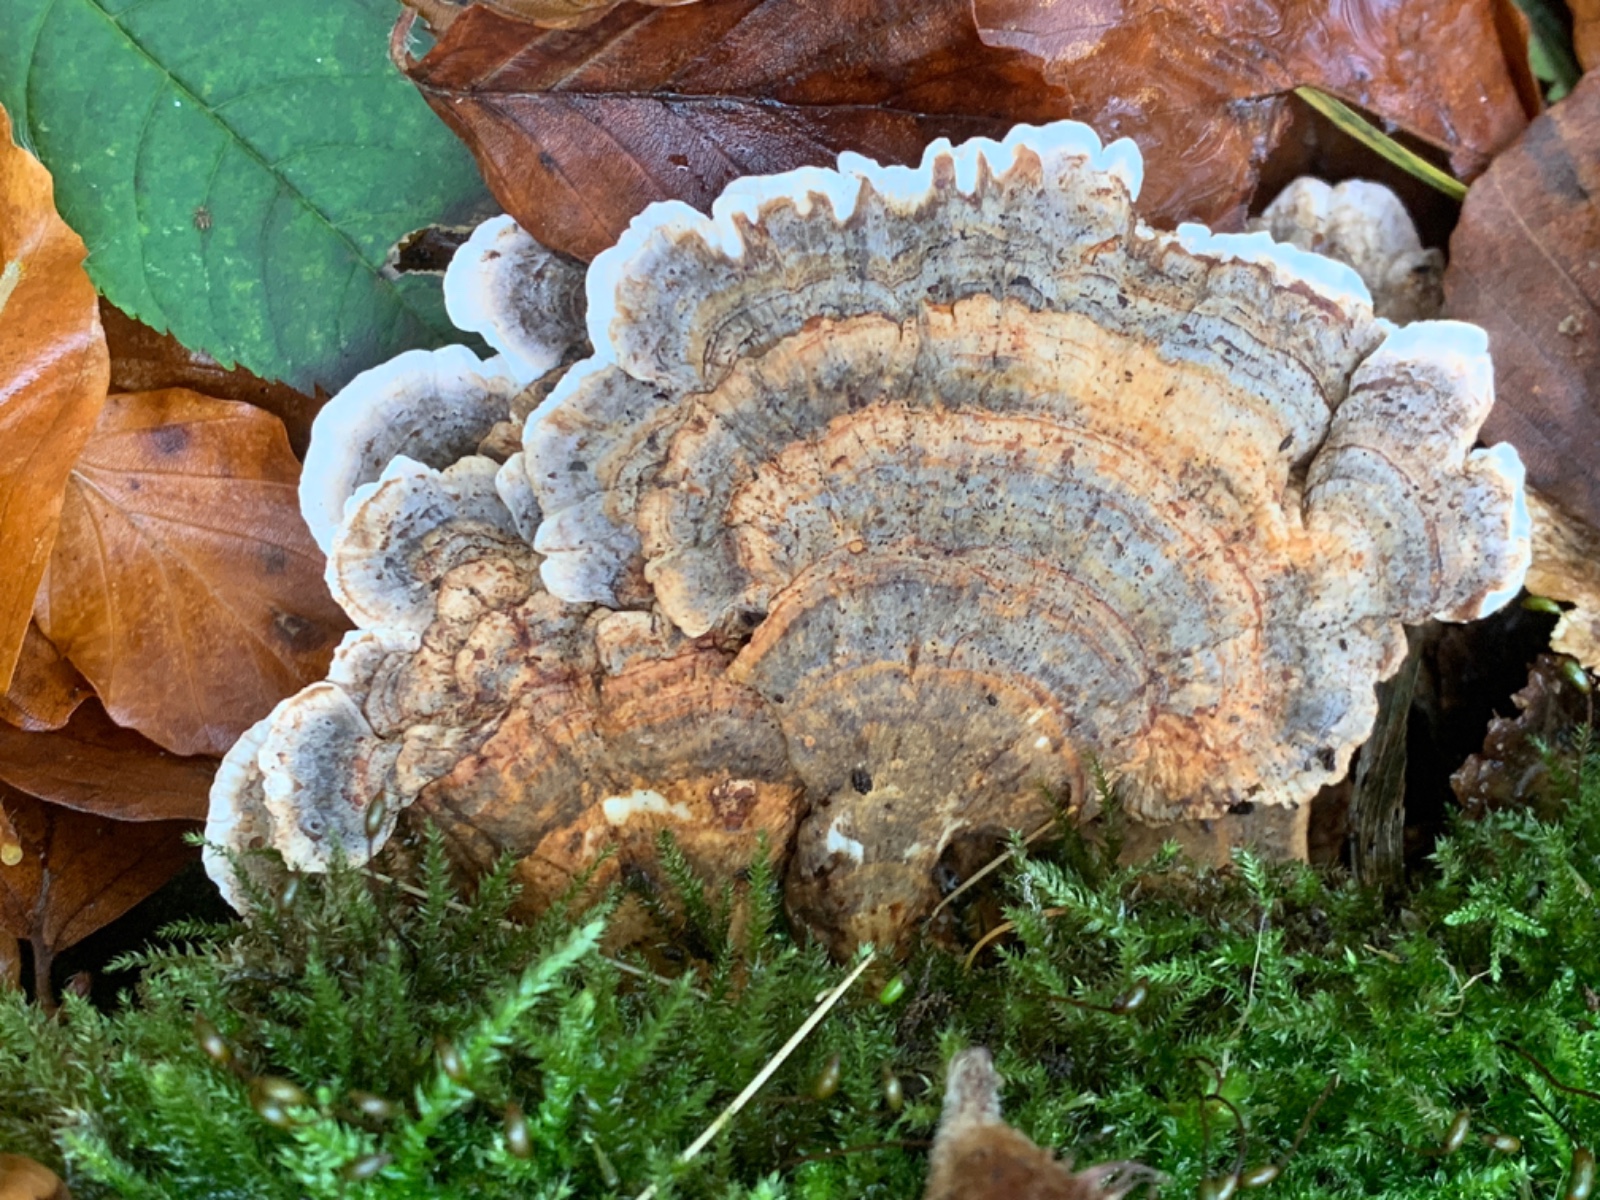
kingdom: Fungi
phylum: Basidiomycota
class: Agaricomycetes
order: Polyporales
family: Polyporaceae
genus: Trametes
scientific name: Trametes versicolor
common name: broget læderporesvamp
